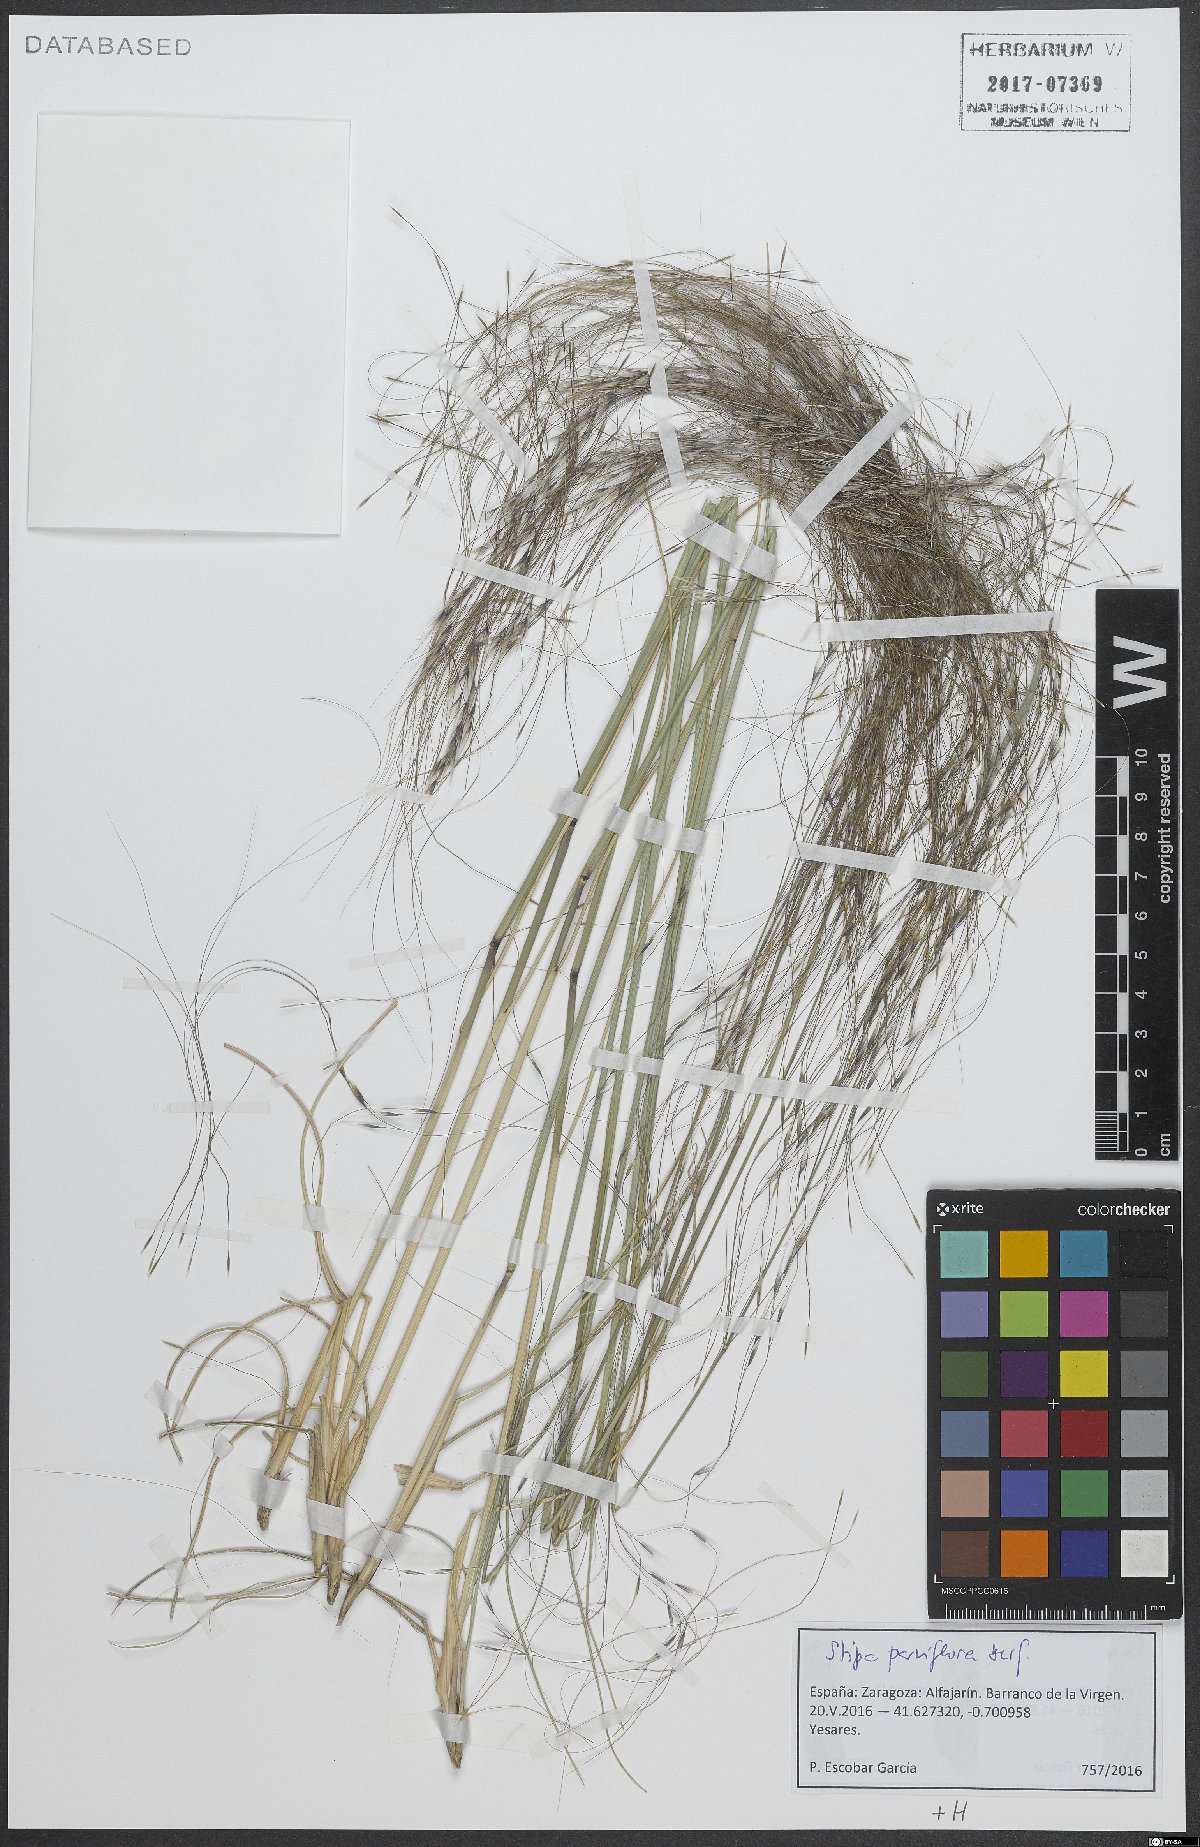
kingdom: Plantae
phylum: Tracheophyta
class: Liliopsida
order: Poales
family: Poaceae
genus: Achnatherum
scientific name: Achnatherum parviflorum
